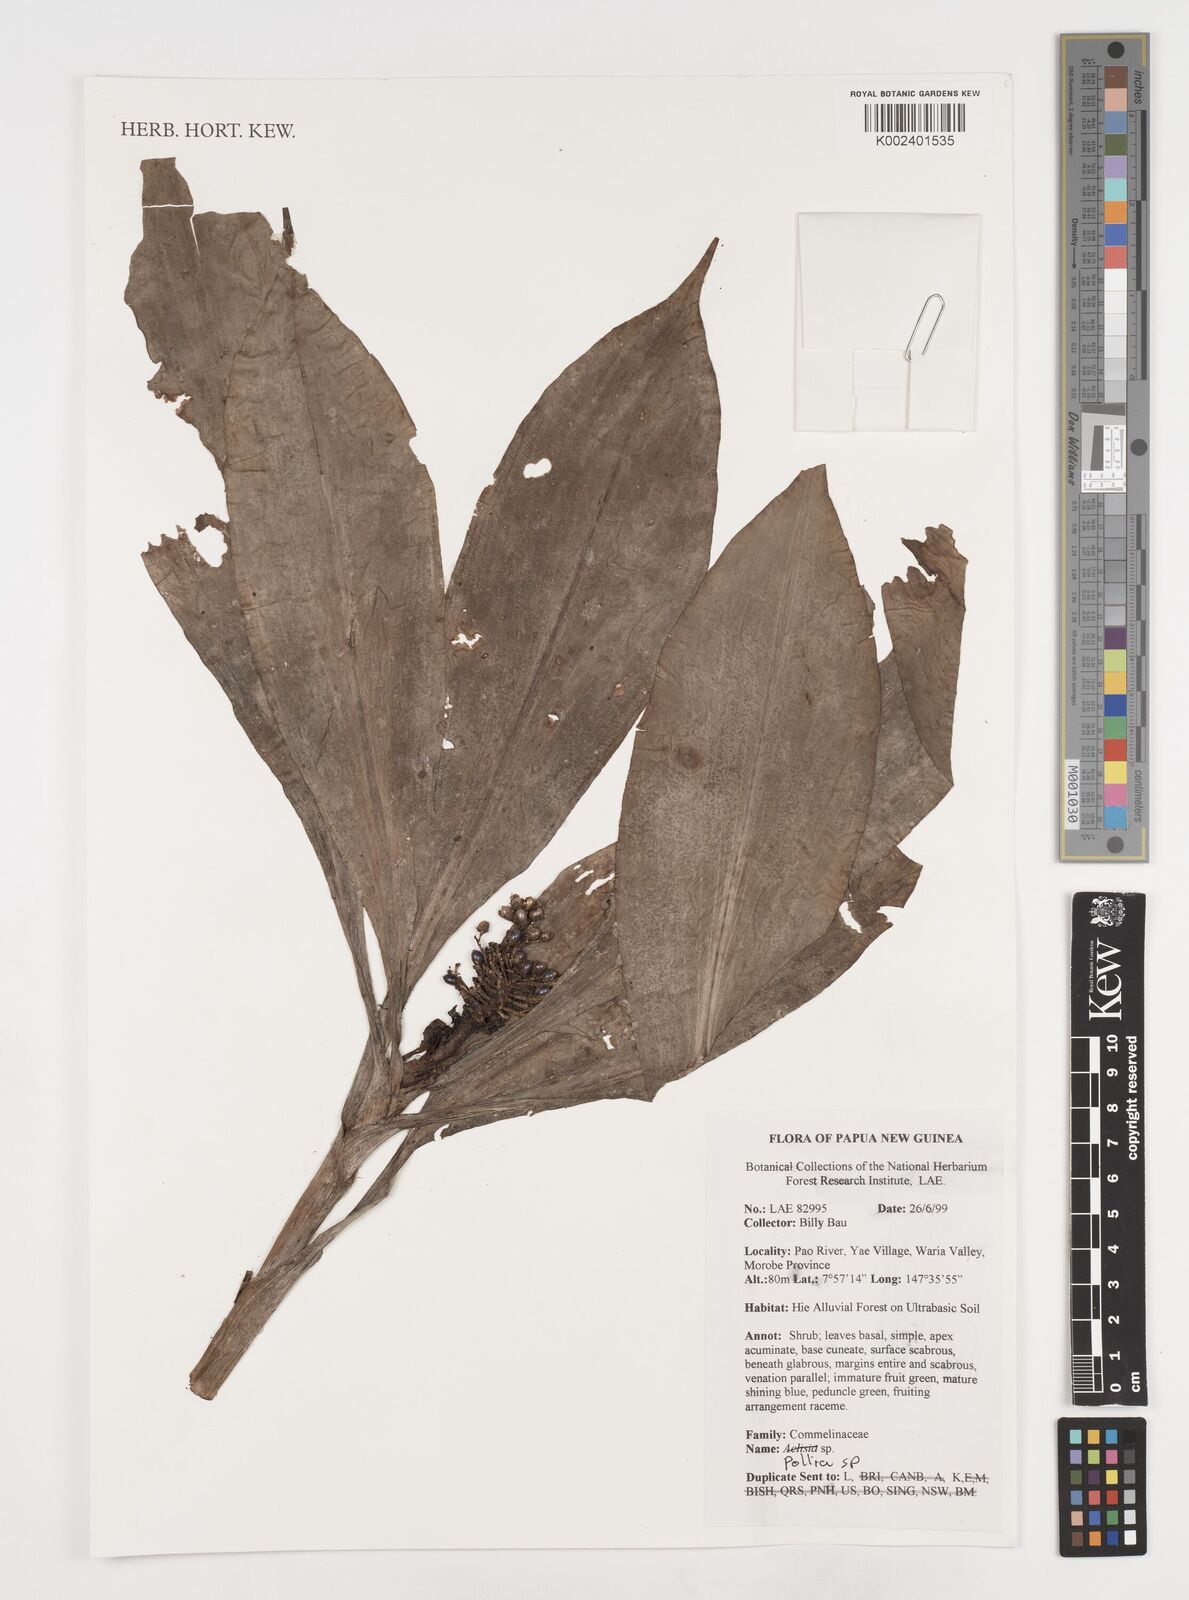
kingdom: Plantae
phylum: Tracheophyta
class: Liliopsida
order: Commelinales
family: Commelinaceae
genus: Pollia
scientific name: Pollia
